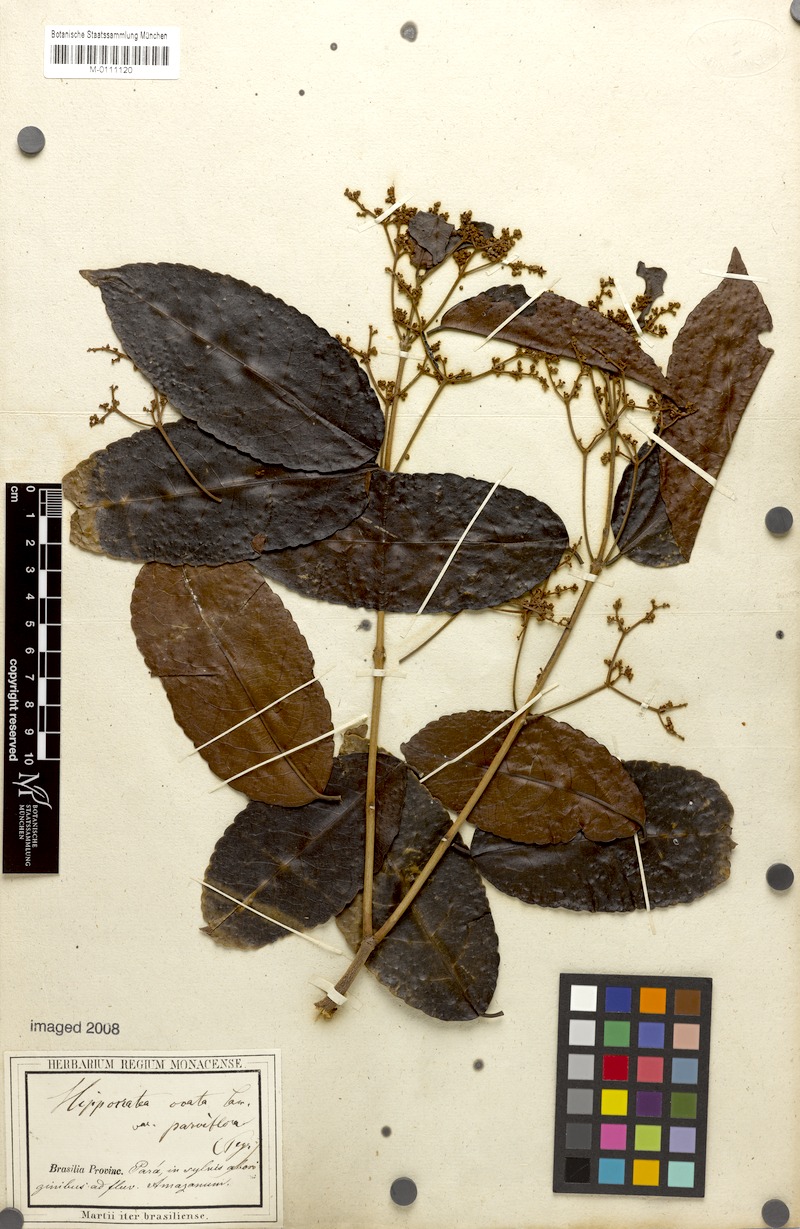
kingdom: Plantae
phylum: Tracheophyta
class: Magnoliopsida
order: Celastrales
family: Celastraceae
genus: Hippocratea
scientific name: Hippocratea volubilis
